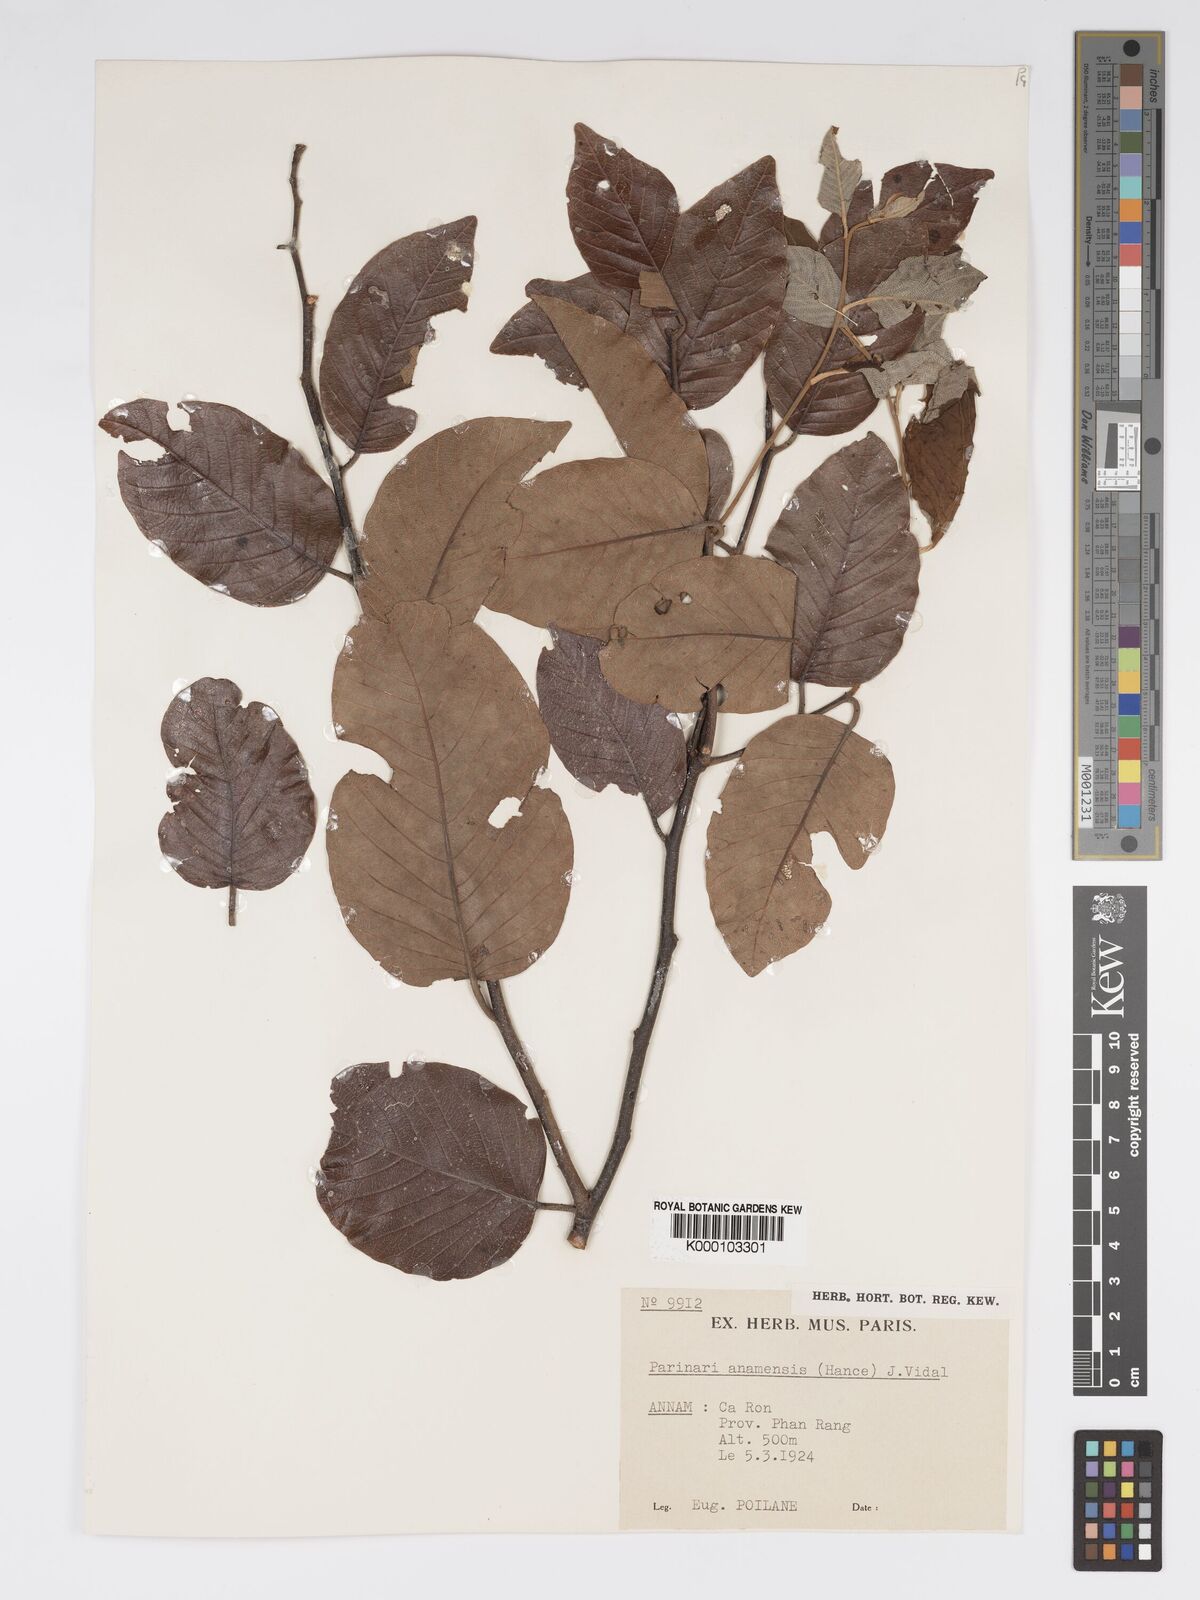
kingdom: Plantae
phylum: Tracheophyta
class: Magnoliopsida
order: Malpighiales
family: Chrysobalanaceae
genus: Parinari
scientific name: Parinari anamensis
